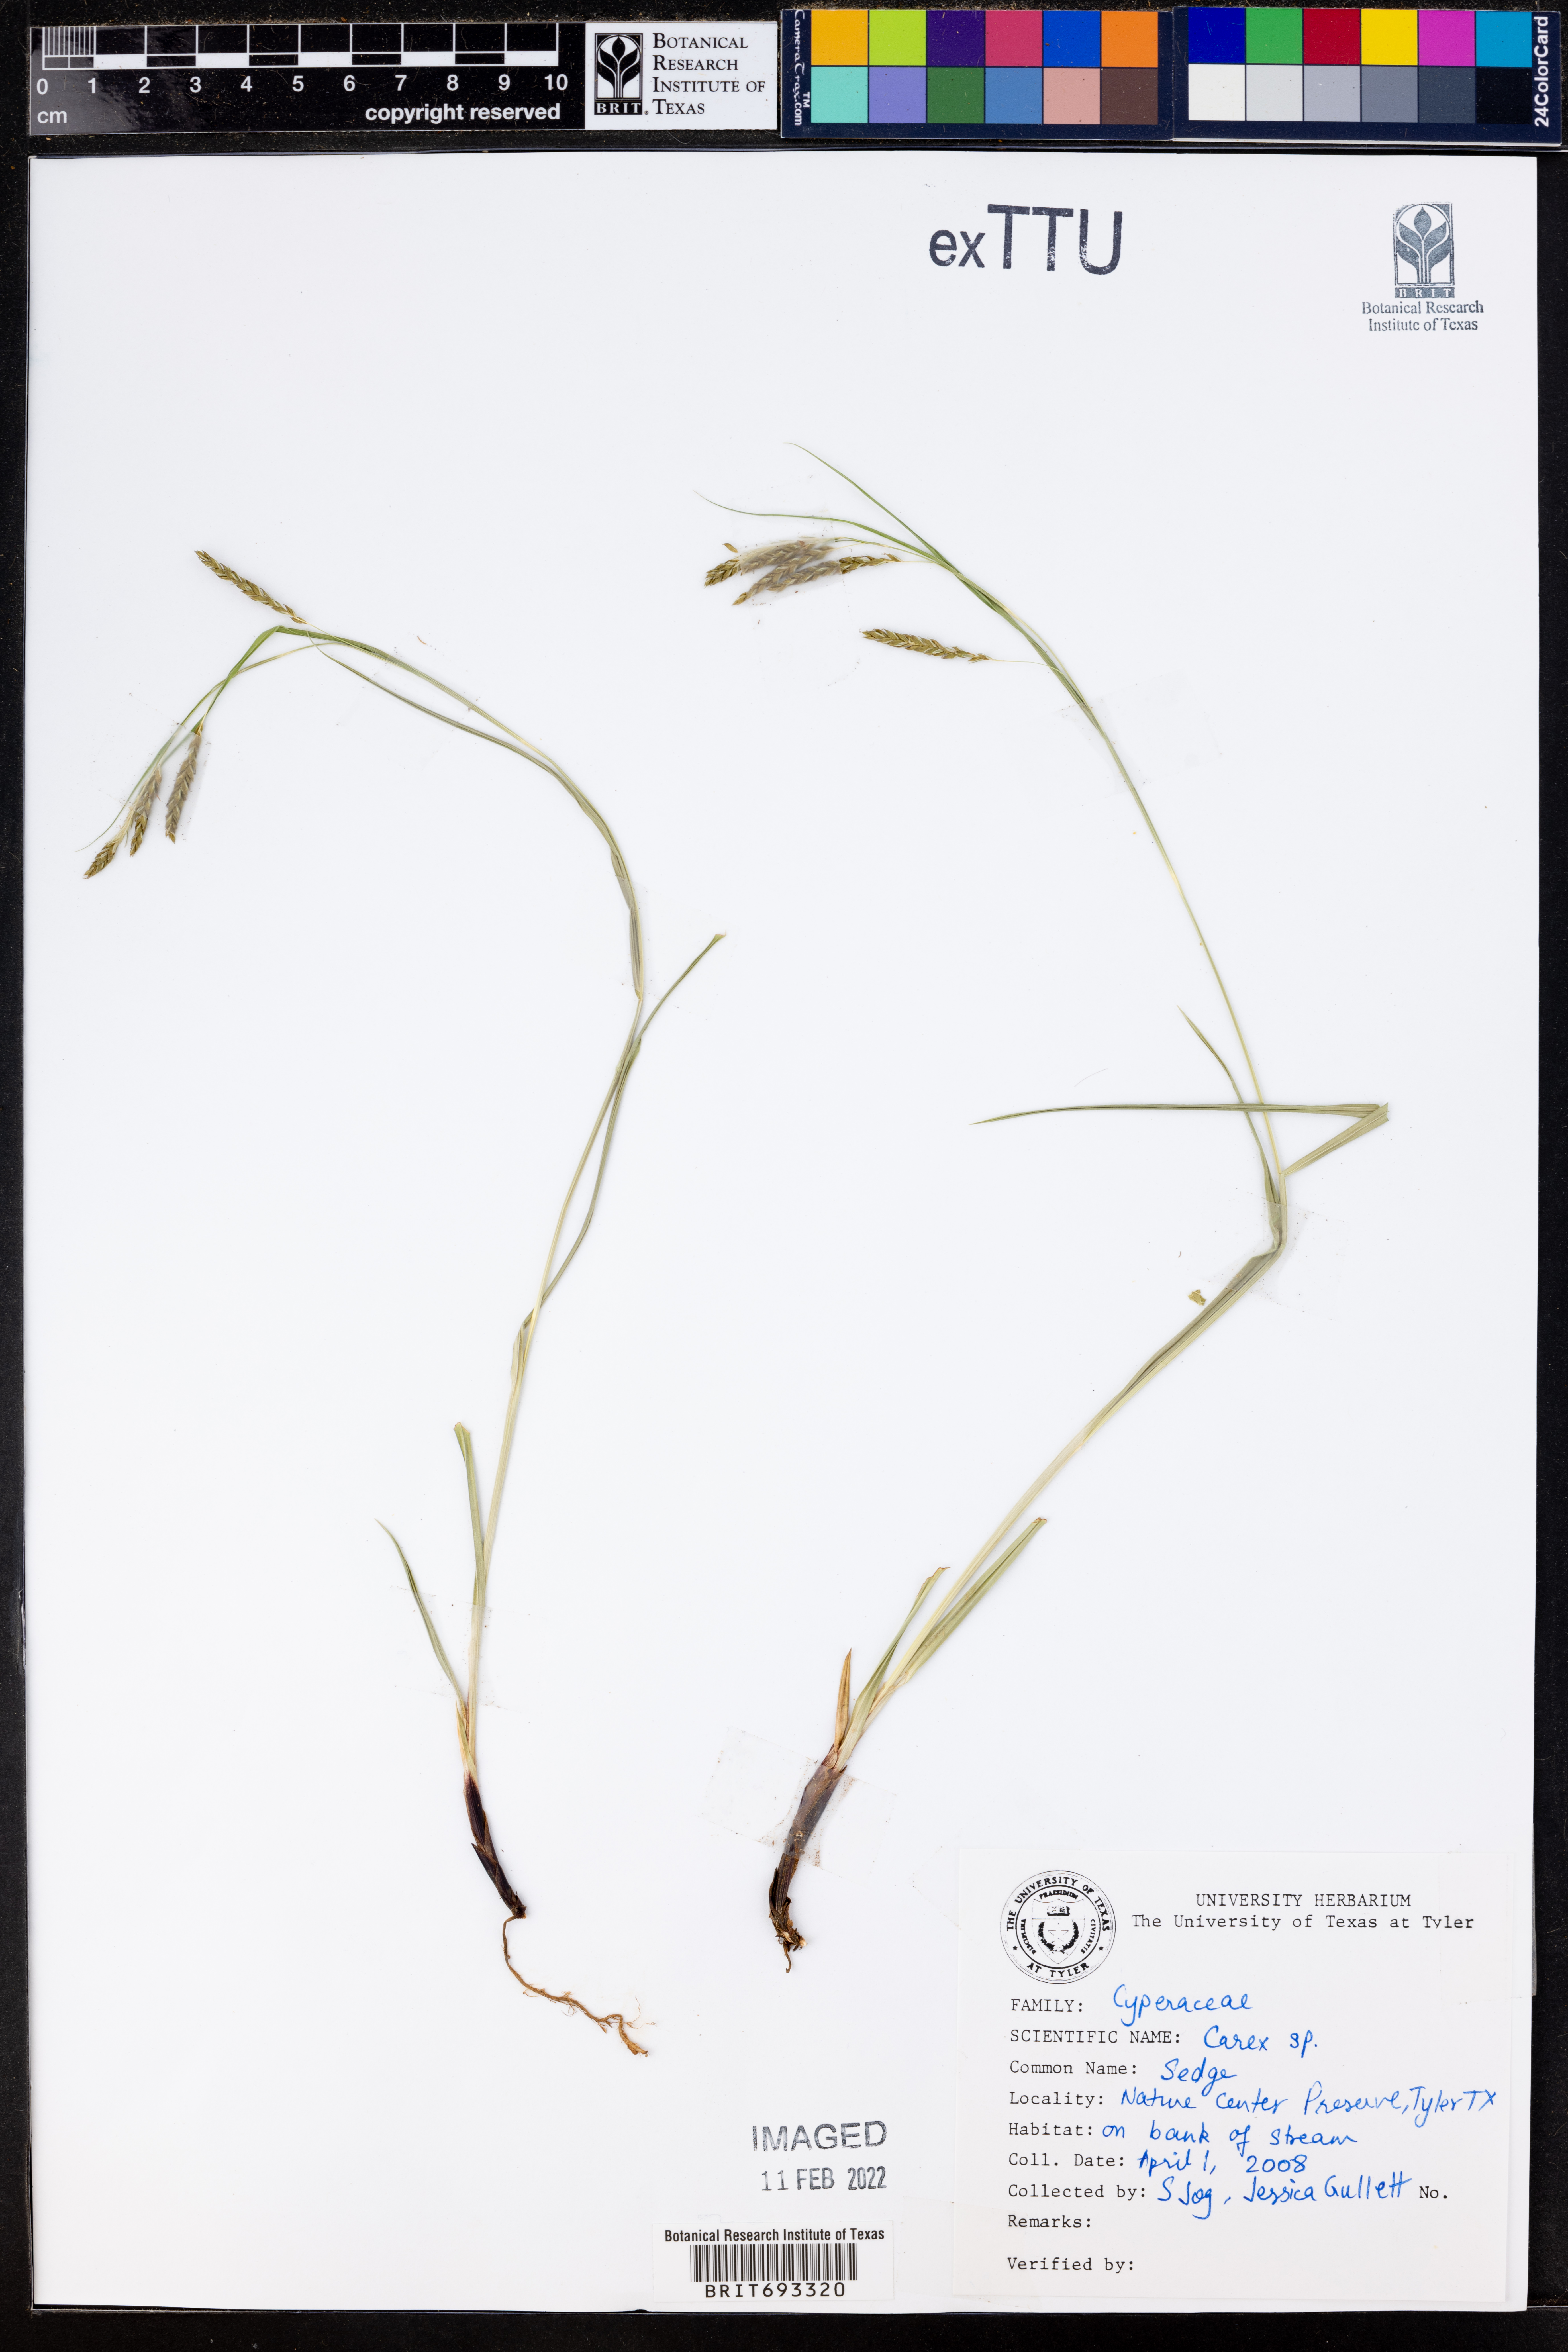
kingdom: Plantae
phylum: Tracheophyta
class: Liliopsida
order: Poales
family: Cyperaceae
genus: Carex
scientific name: Carex
